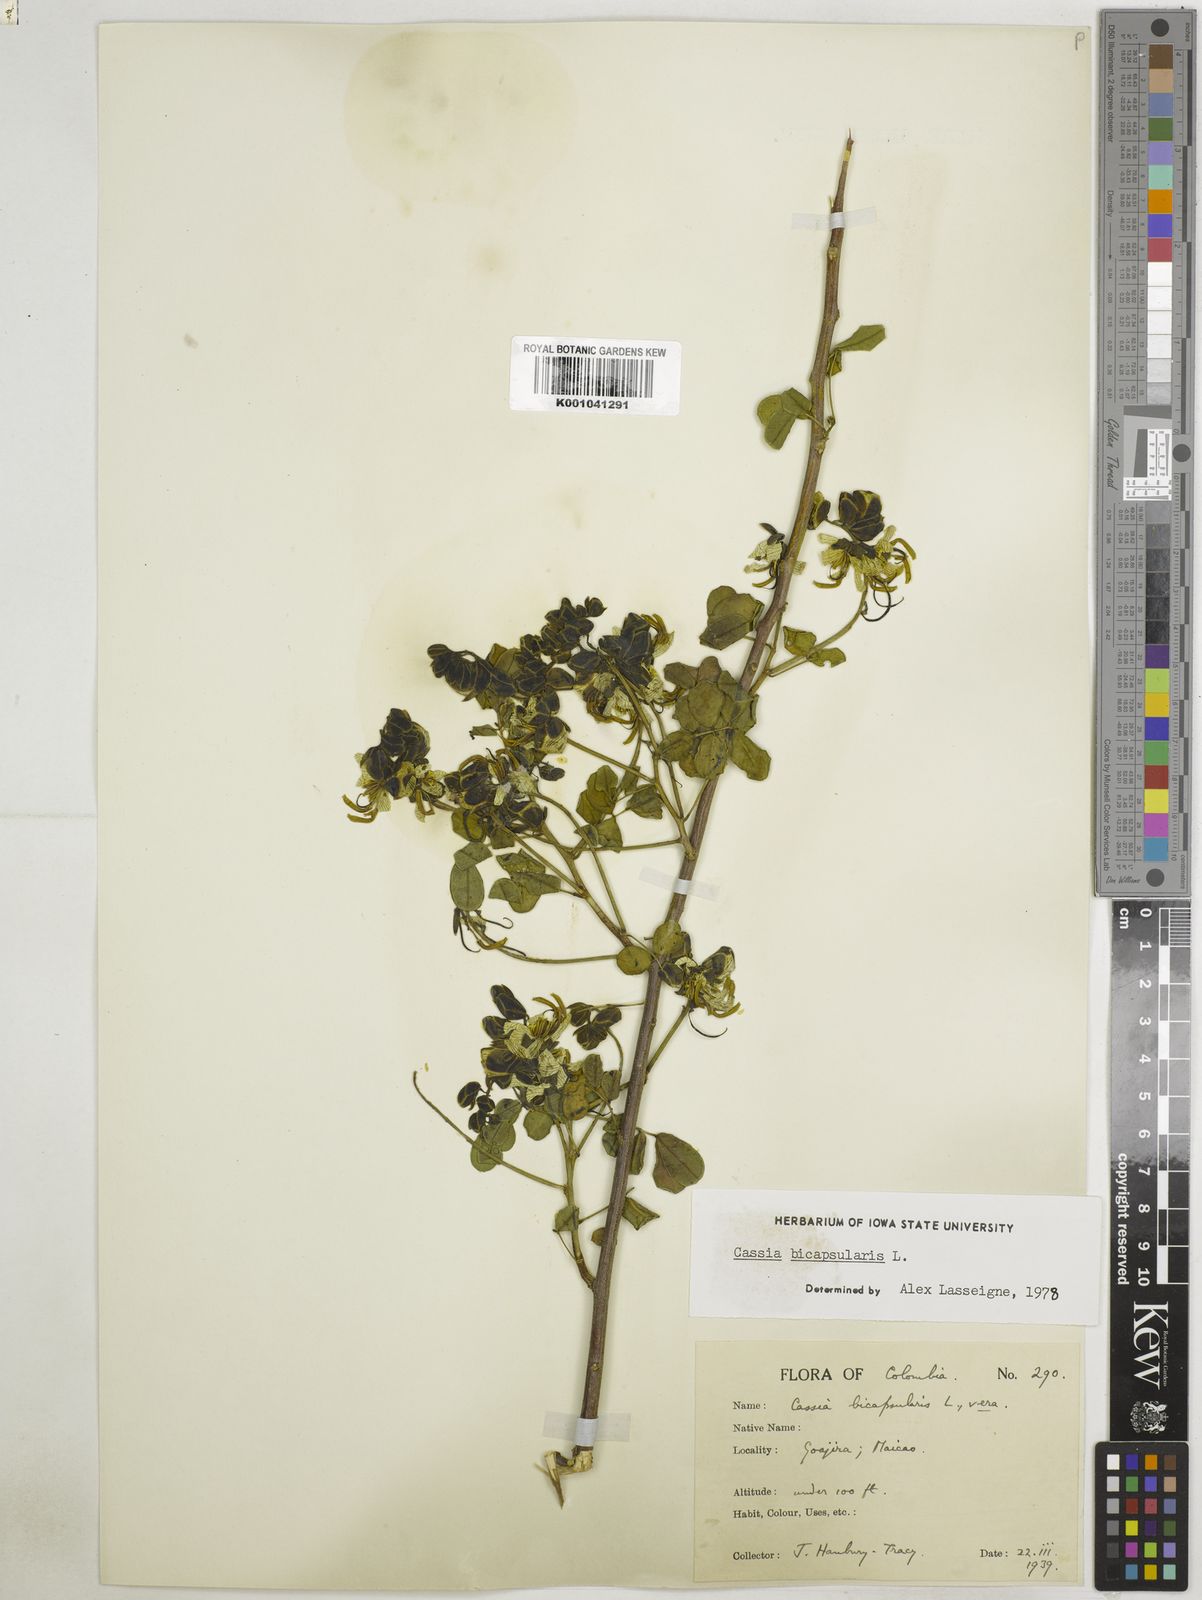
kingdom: Plantae
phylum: Tracheophyta
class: Magnoliopsida
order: Fabales
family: Fabaceae
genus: Senna
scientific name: Senna bicapsularis
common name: Christmasbush
